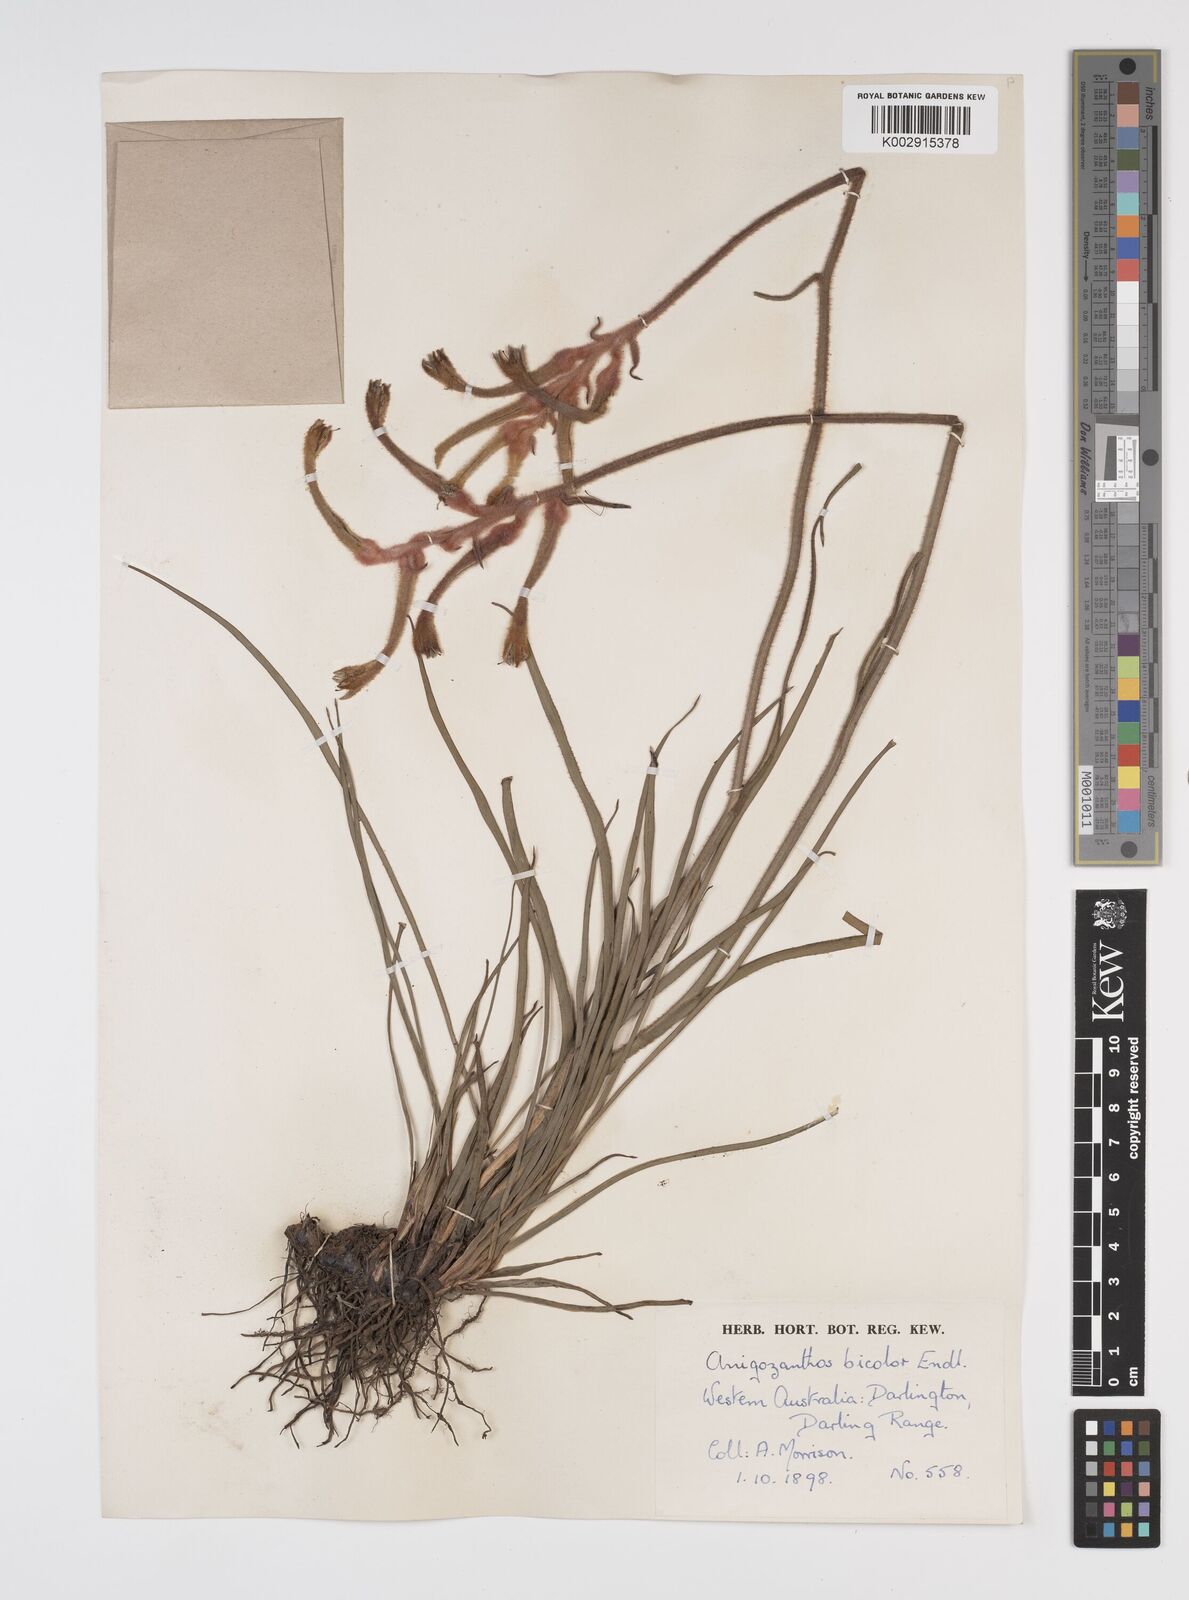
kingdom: Plantae
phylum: Tracheophyta
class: Liliopsida
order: Commelinales
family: Haemodoraceae
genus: Anigozanthos
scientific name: Anigozanthos bicolor
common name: Little kangaroo-paw
